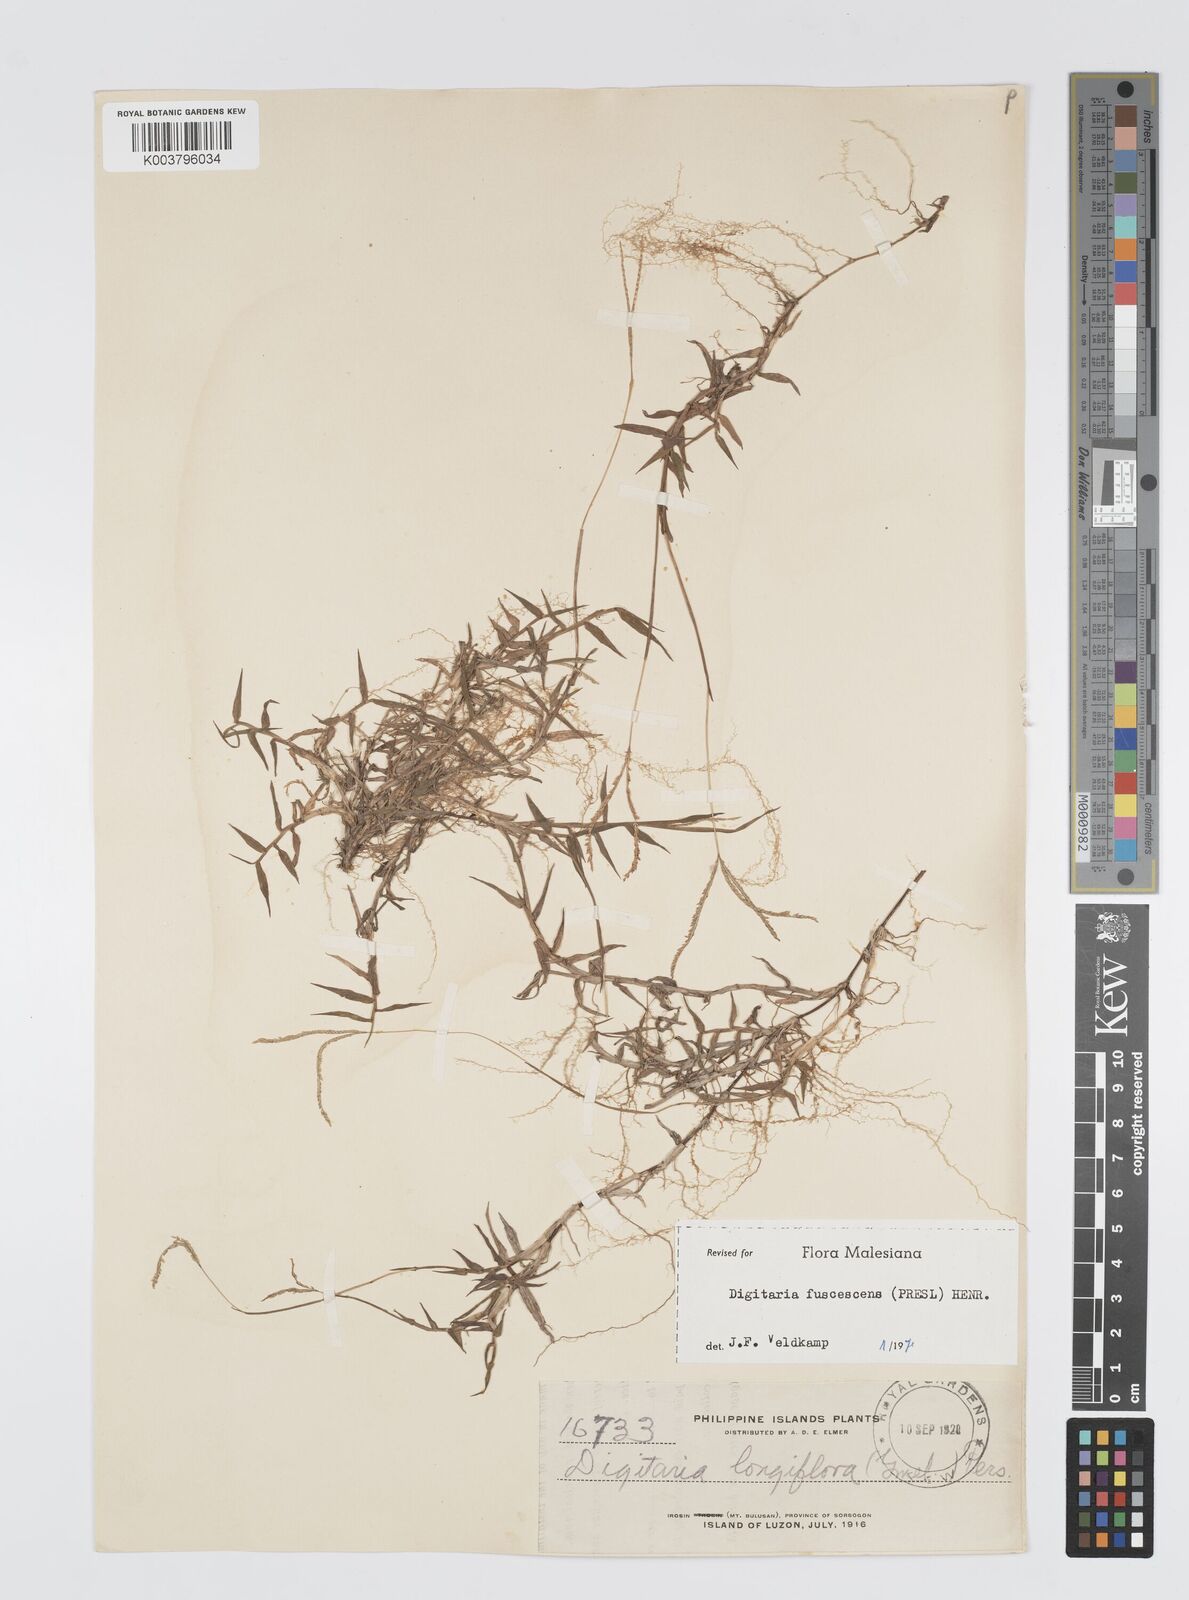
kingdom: Plantae
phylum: Tracheophyta
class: Liliopsida
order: Poales
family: Poaceae
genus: Digitaria
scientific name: Digitaria ciliaris
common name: Tropical finger-grass
